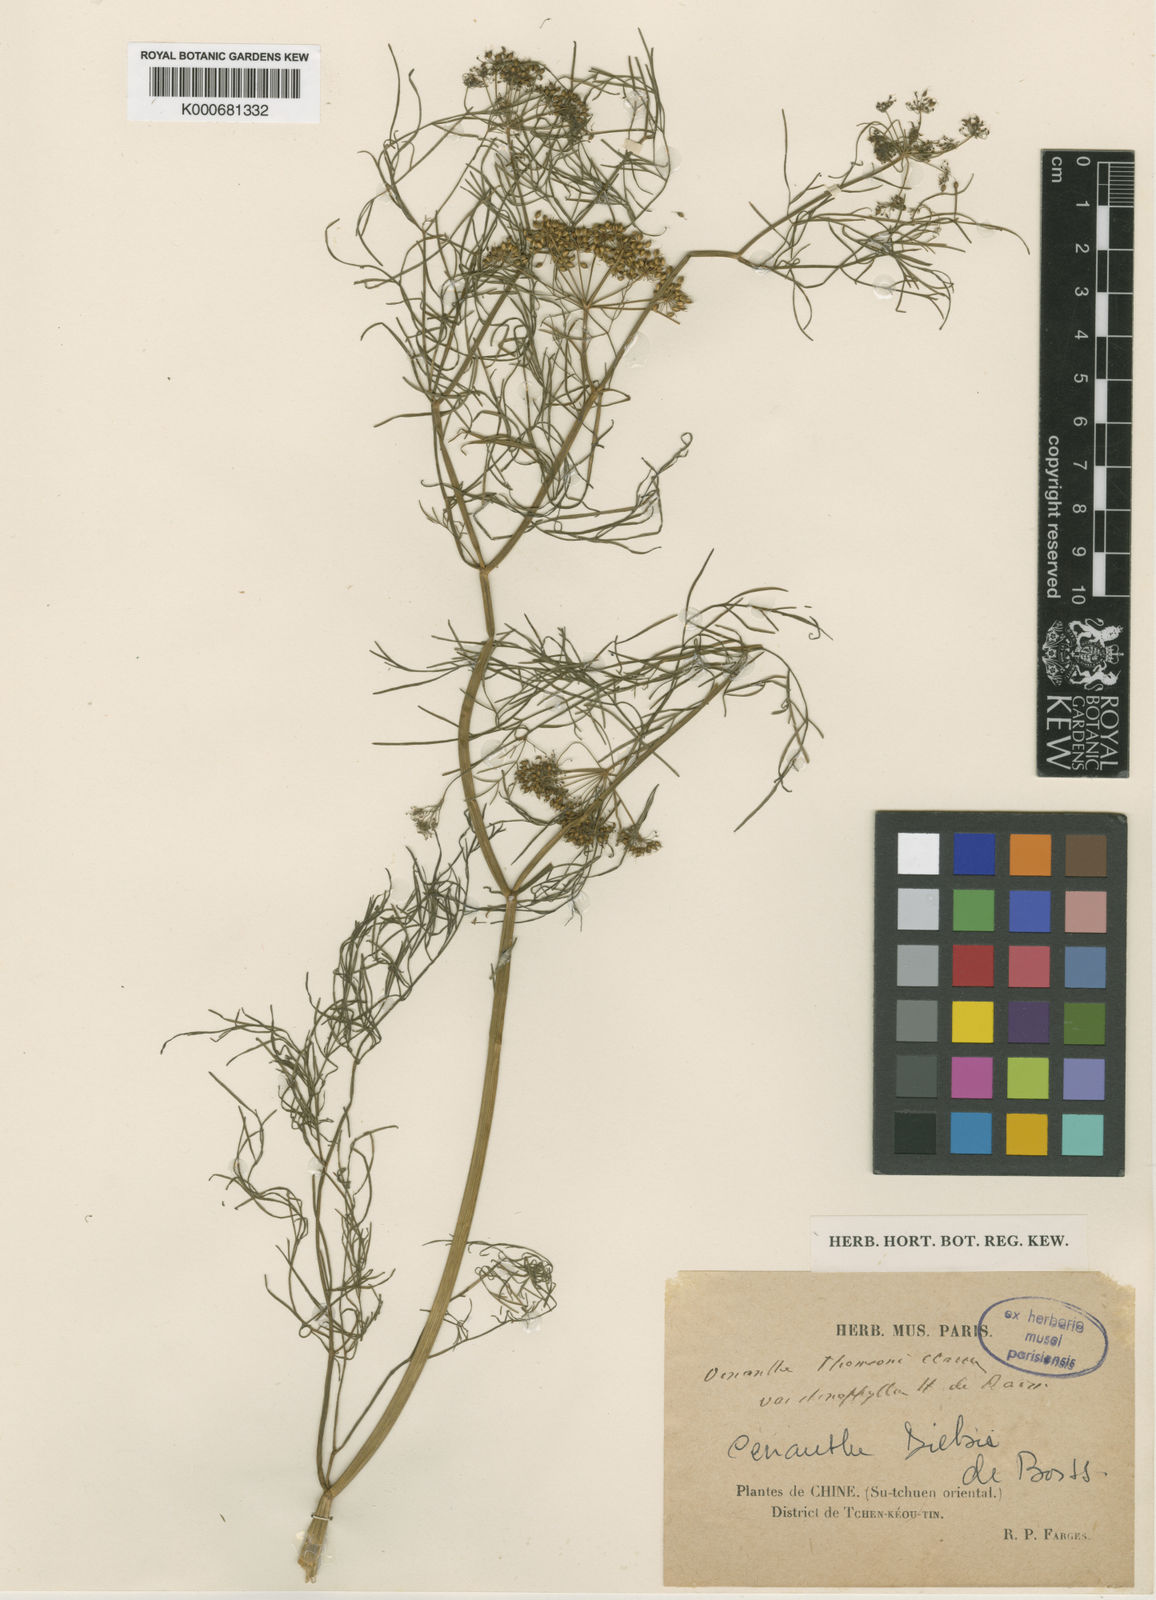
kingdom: Plantae
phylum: Tracheophyta
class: Magnoliopsida
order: Apiales
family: Apiaceae
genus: Oenanthe
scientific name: Oenanthe thomsonii
